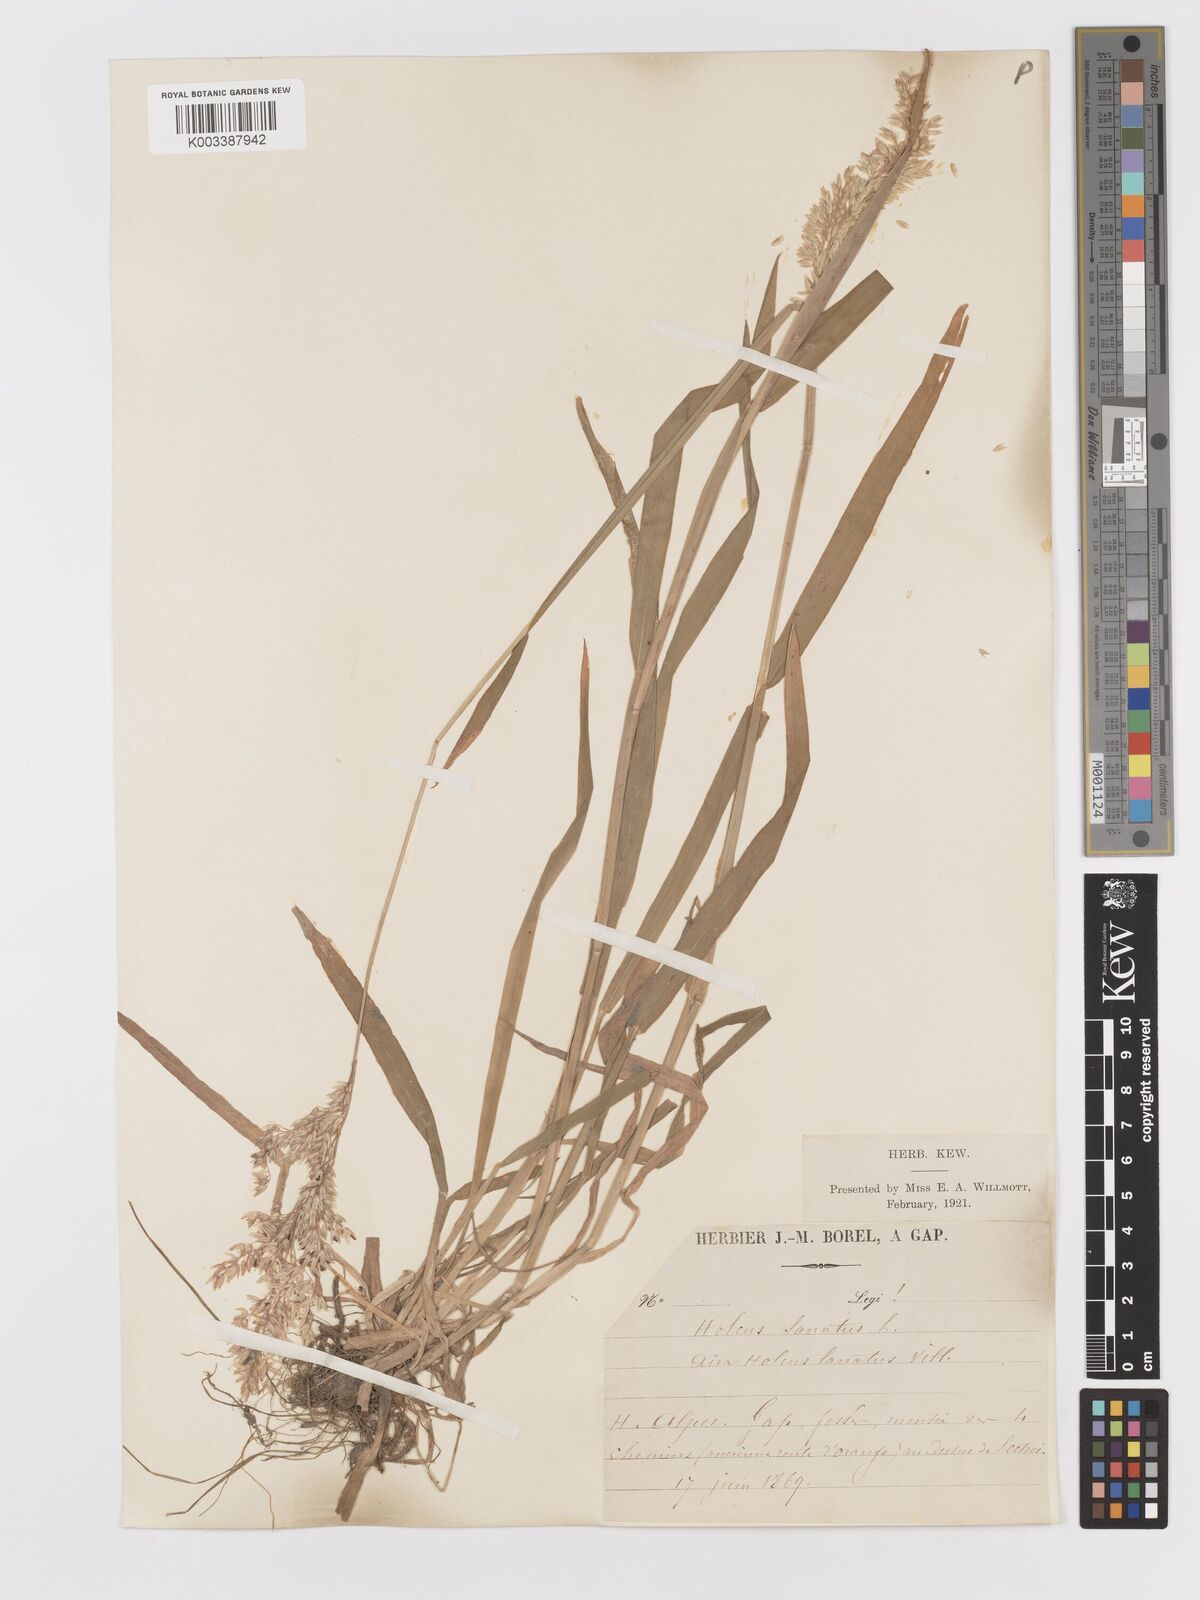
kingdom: Plantae
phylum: Tracheophyta
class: Liliopsida
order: Poales
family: Poaceae
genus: Holcus
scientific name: Holcus lanatus
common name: Yorkshire-fog
